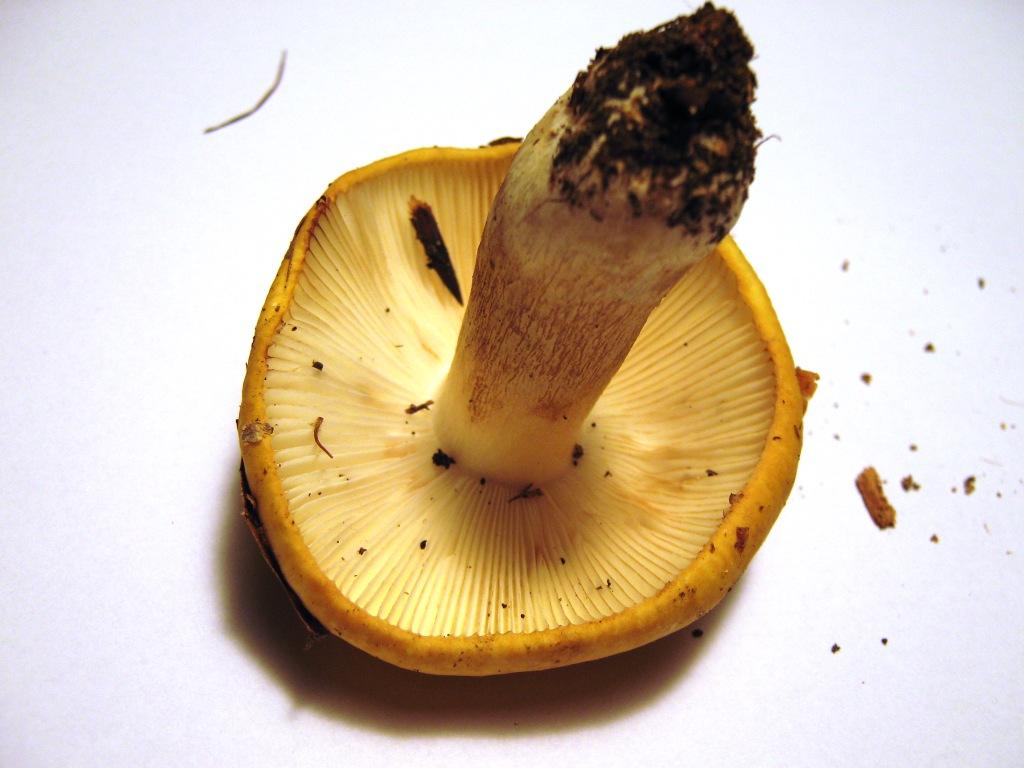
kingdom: Fungi
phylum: Basidiomycota
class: Agaricomycetes
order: Russulales
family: Russulaceae
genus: Russula
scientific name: Russula ochroleuca
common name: okkergul skørhat
